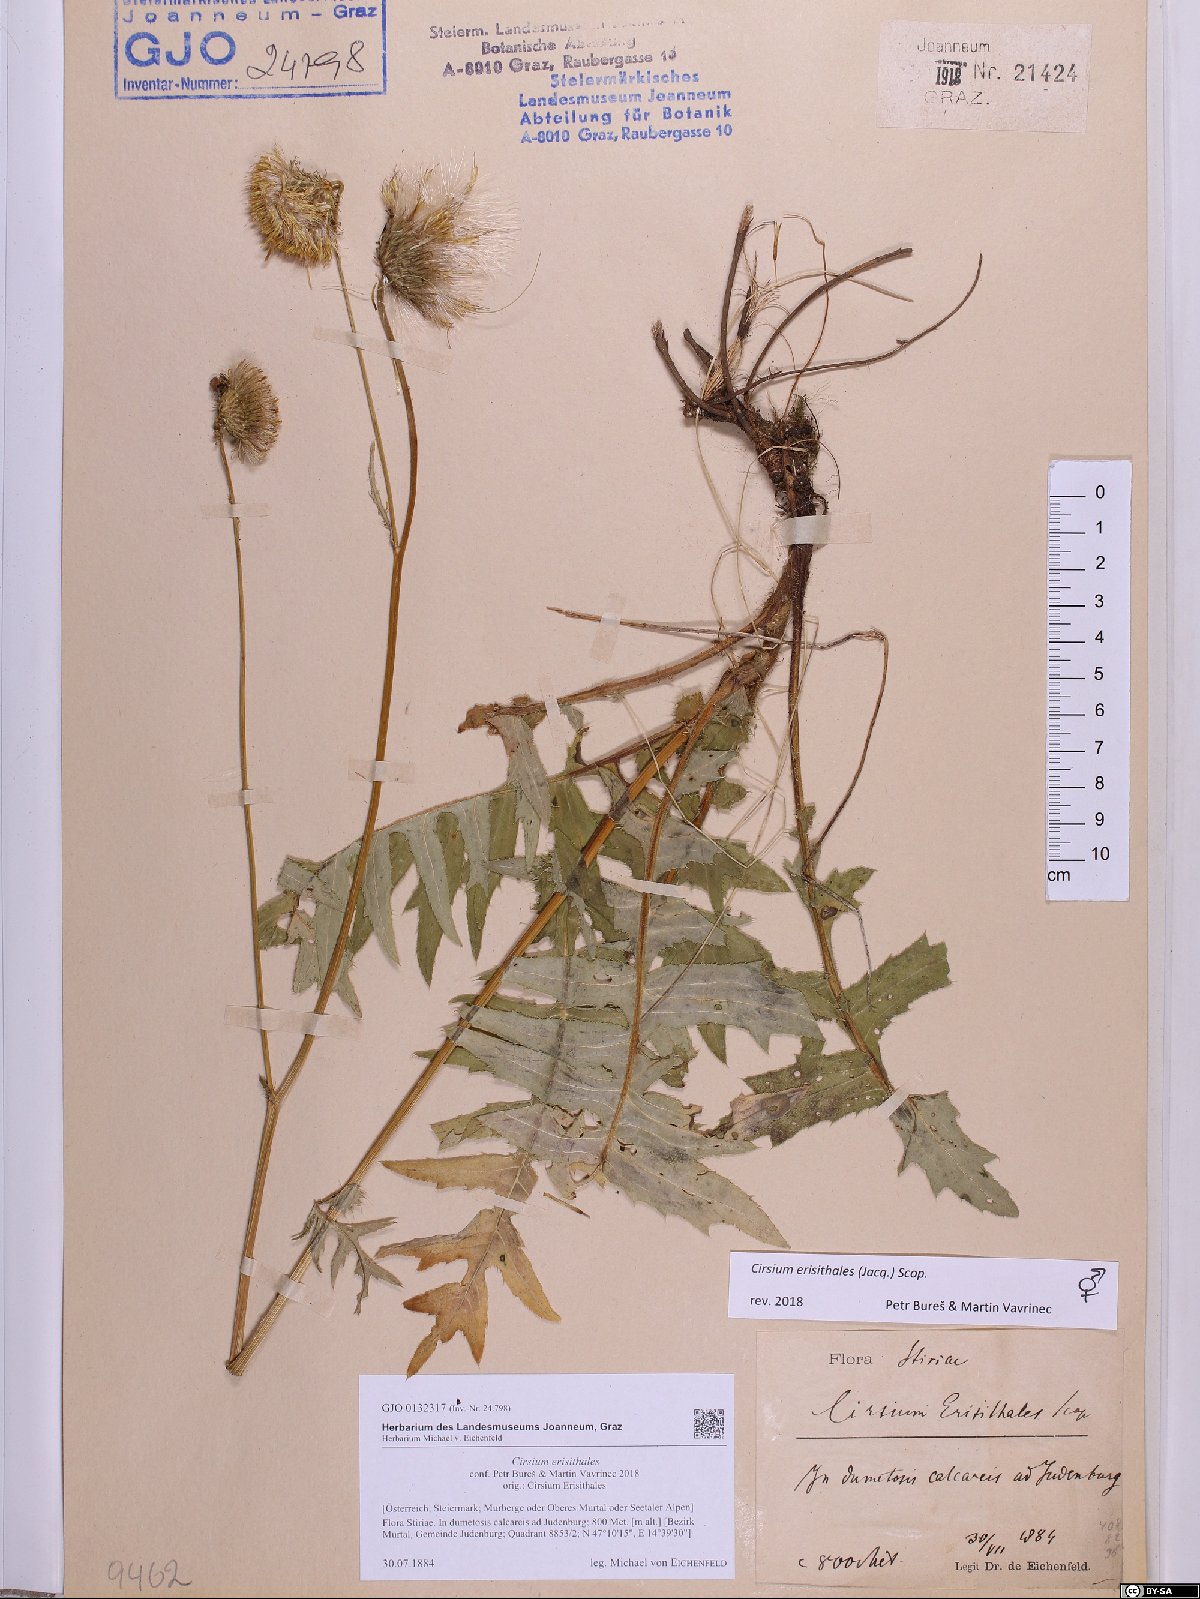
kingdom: Plantae
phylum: Tracheophyta
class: Magnoliopsida
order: Asterales
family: Asteraceae
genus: Cirsium
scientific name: Cirsium erisithales
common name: Yellow thistle
